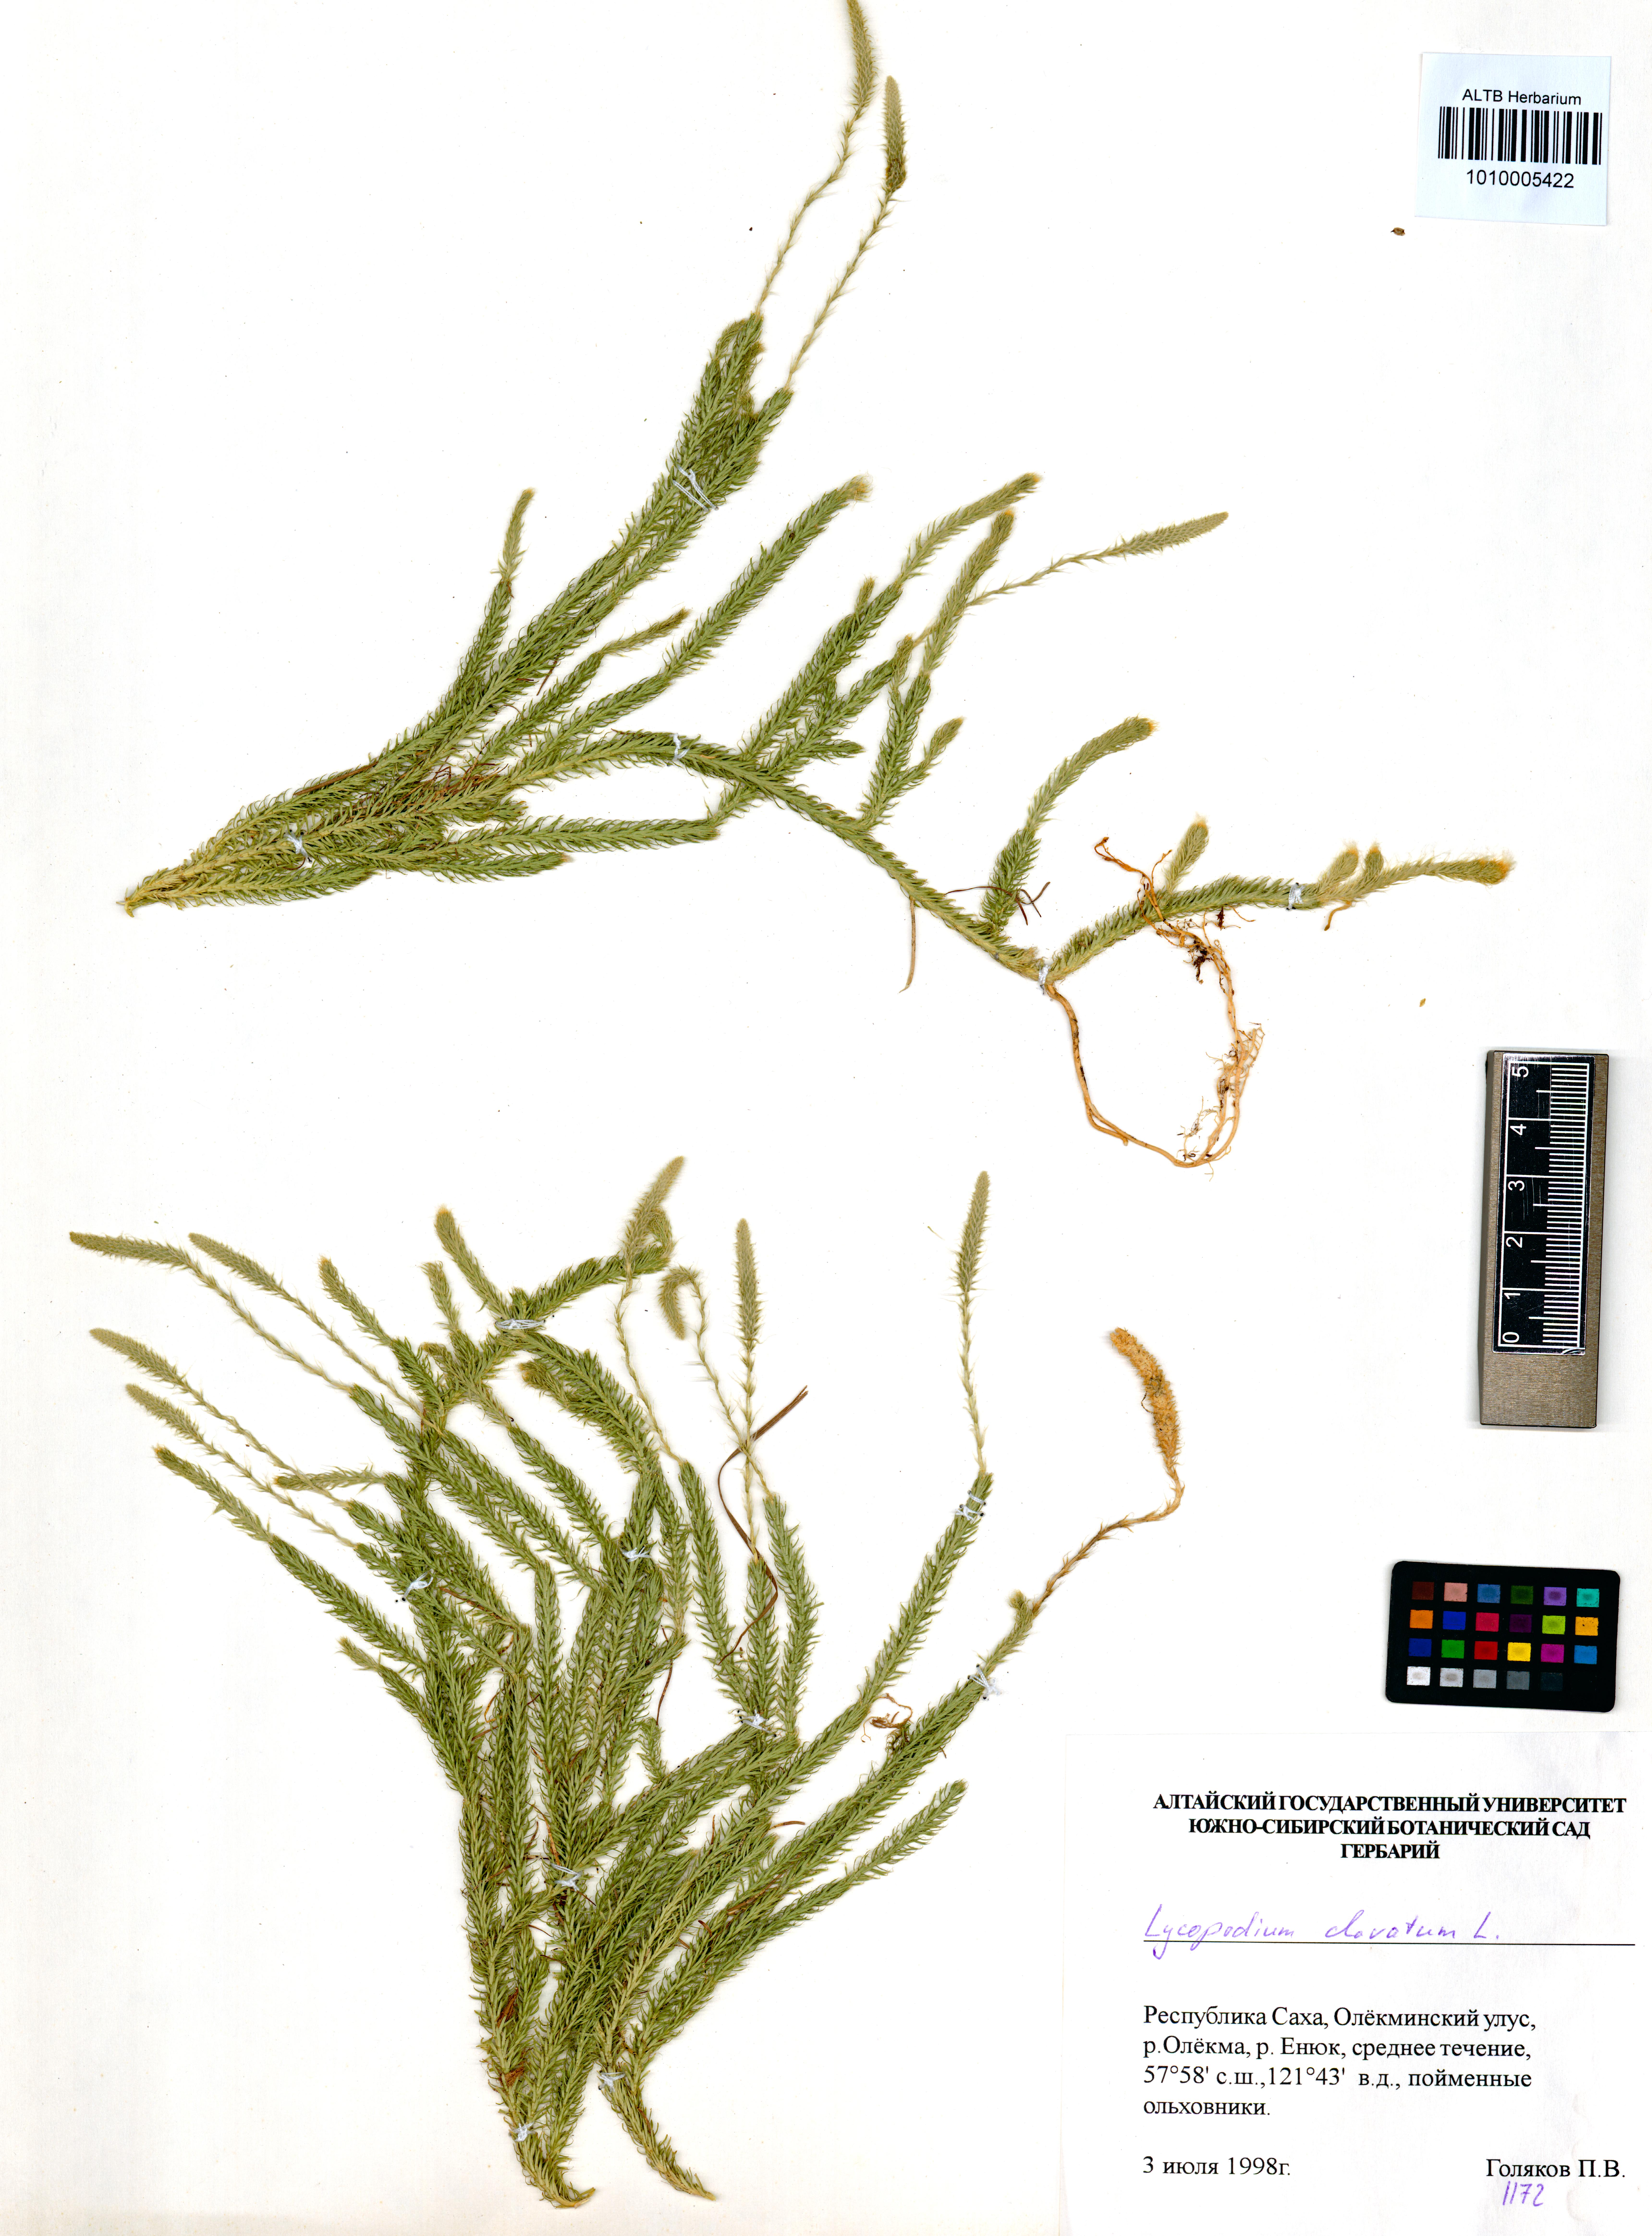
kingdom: Plantae
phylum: Tracheophyta
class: Lycopodiopsida
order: Lycopodiales
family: Lycopodiaceae
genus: Lycopodium
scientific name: Lycopodium clavatum
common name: Stag's-horn clubmoss
